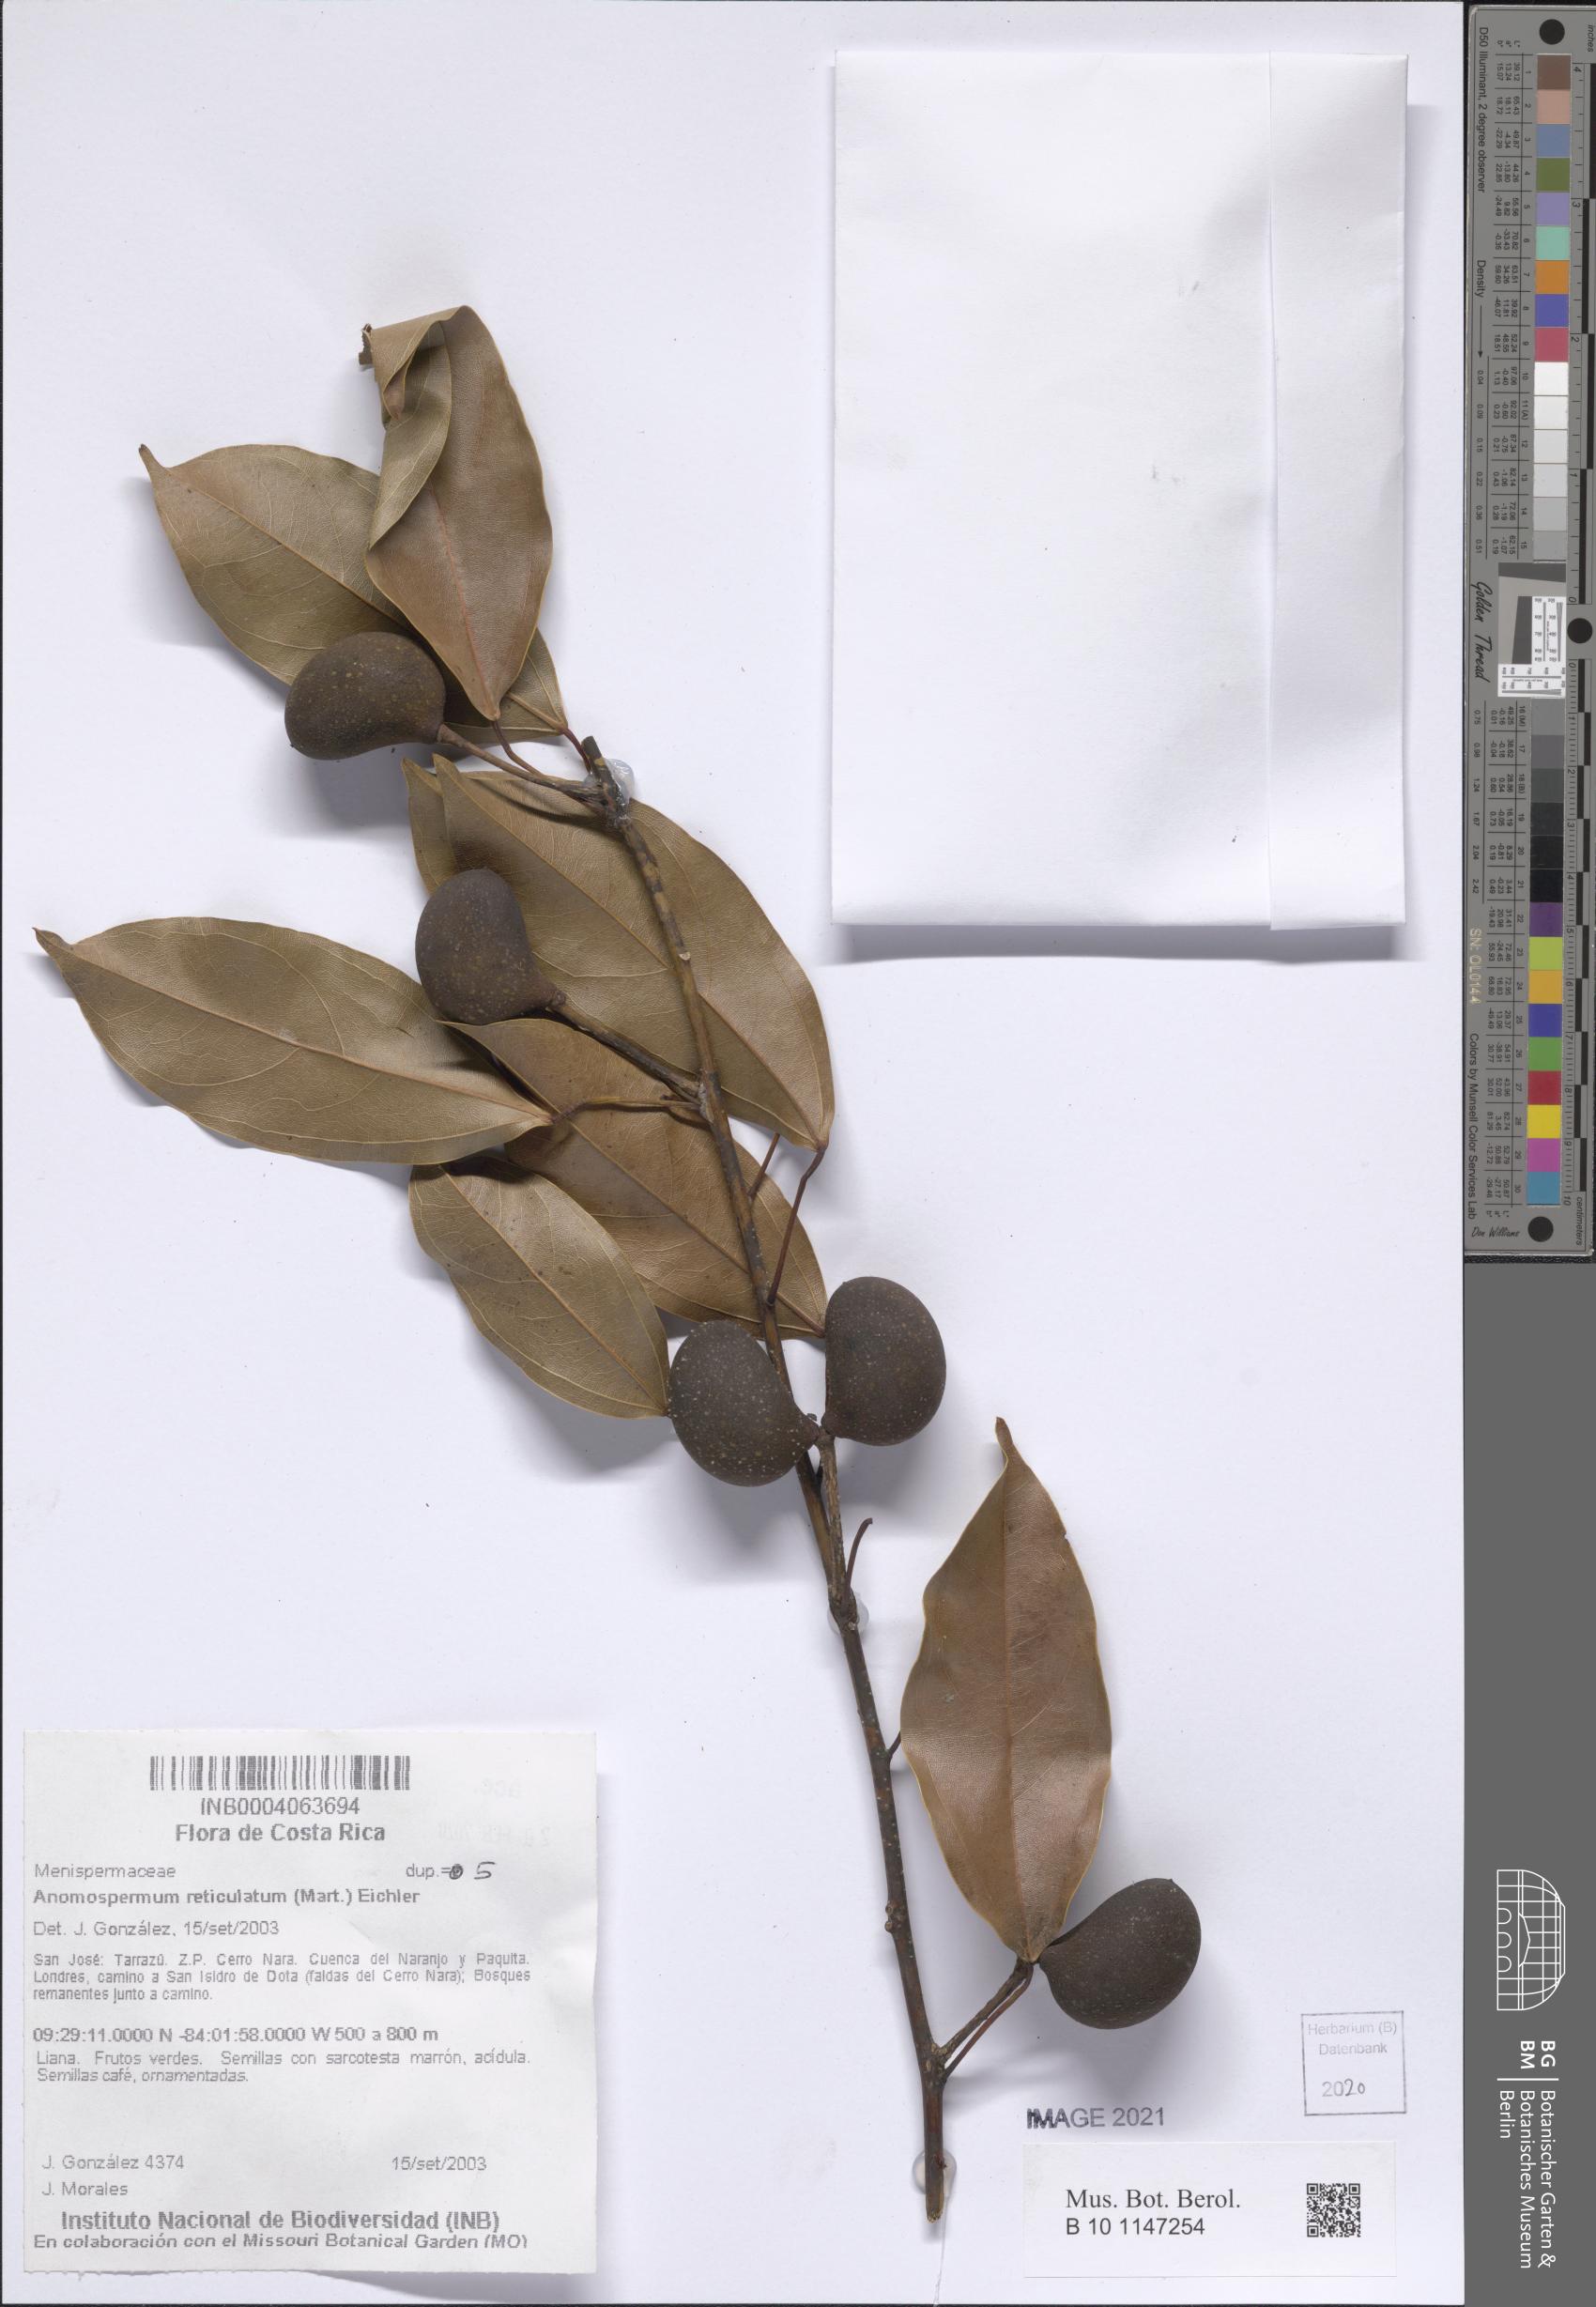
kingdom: Plantae
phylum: Tracheophyta
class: Magnoliopsida
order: Ranunculales
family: Menispermaceae
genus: Anomospermum
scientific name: Anomospermum reticulatum
